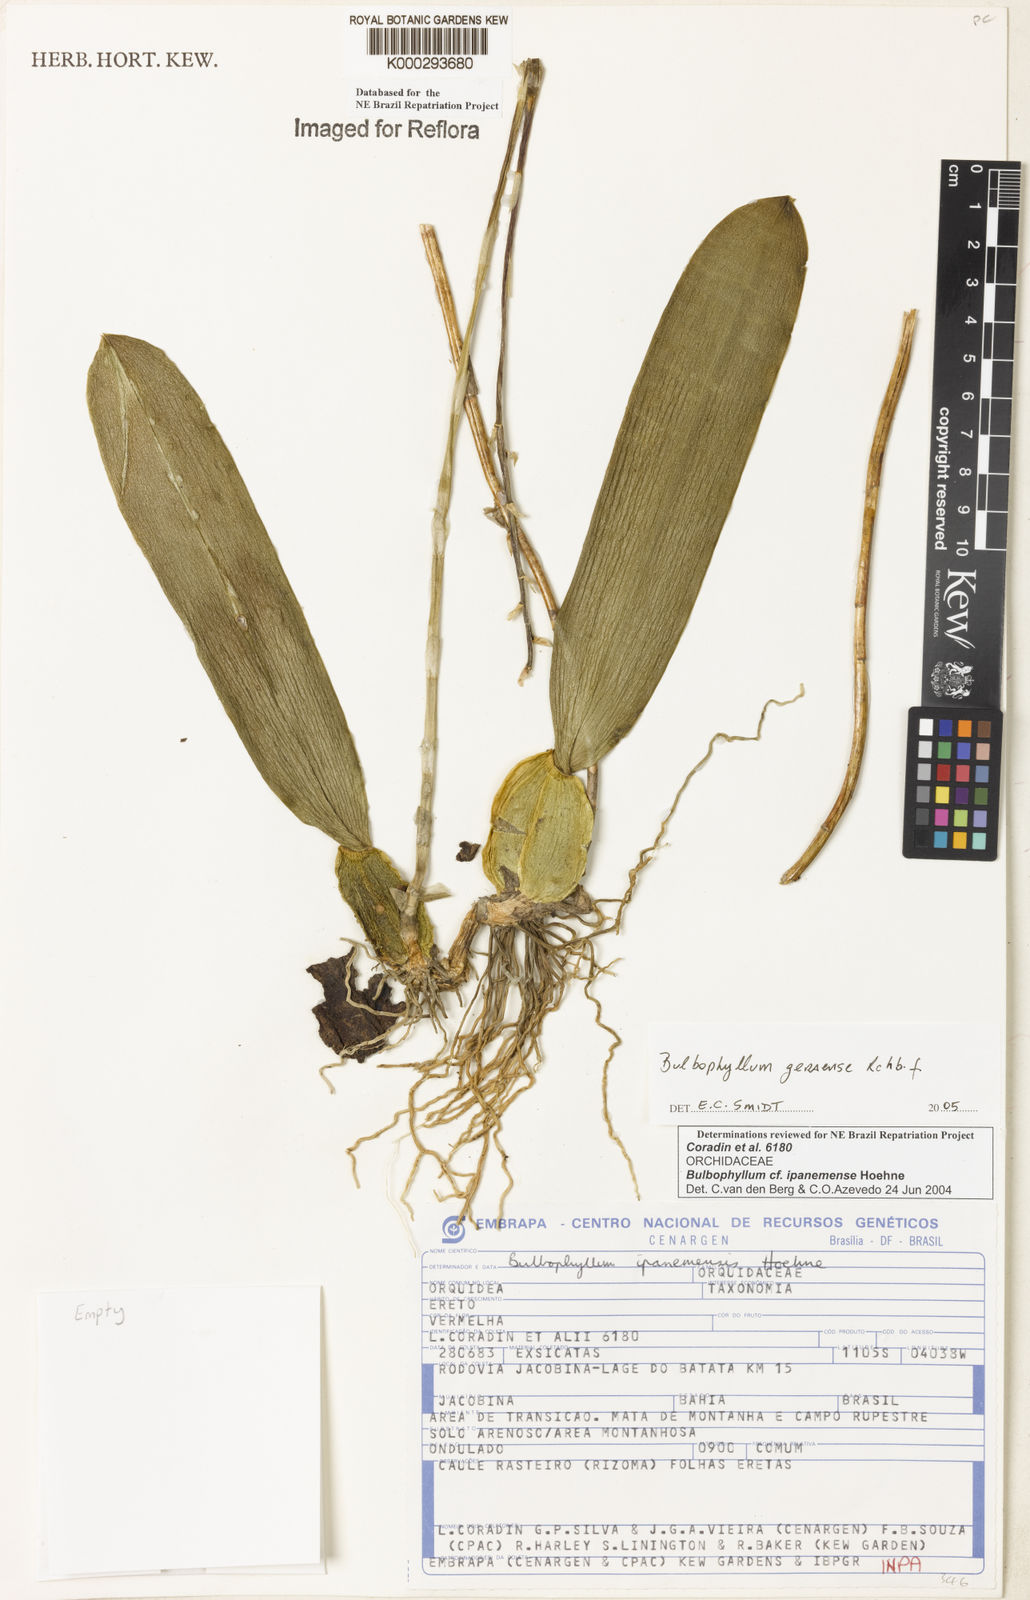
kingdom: Plantae
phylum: Tracheophyta
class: Liliopsida
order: Asparagales
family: Orchidaceae
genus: Bulbophyllum
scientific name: Bulbophyllum ipanemense
